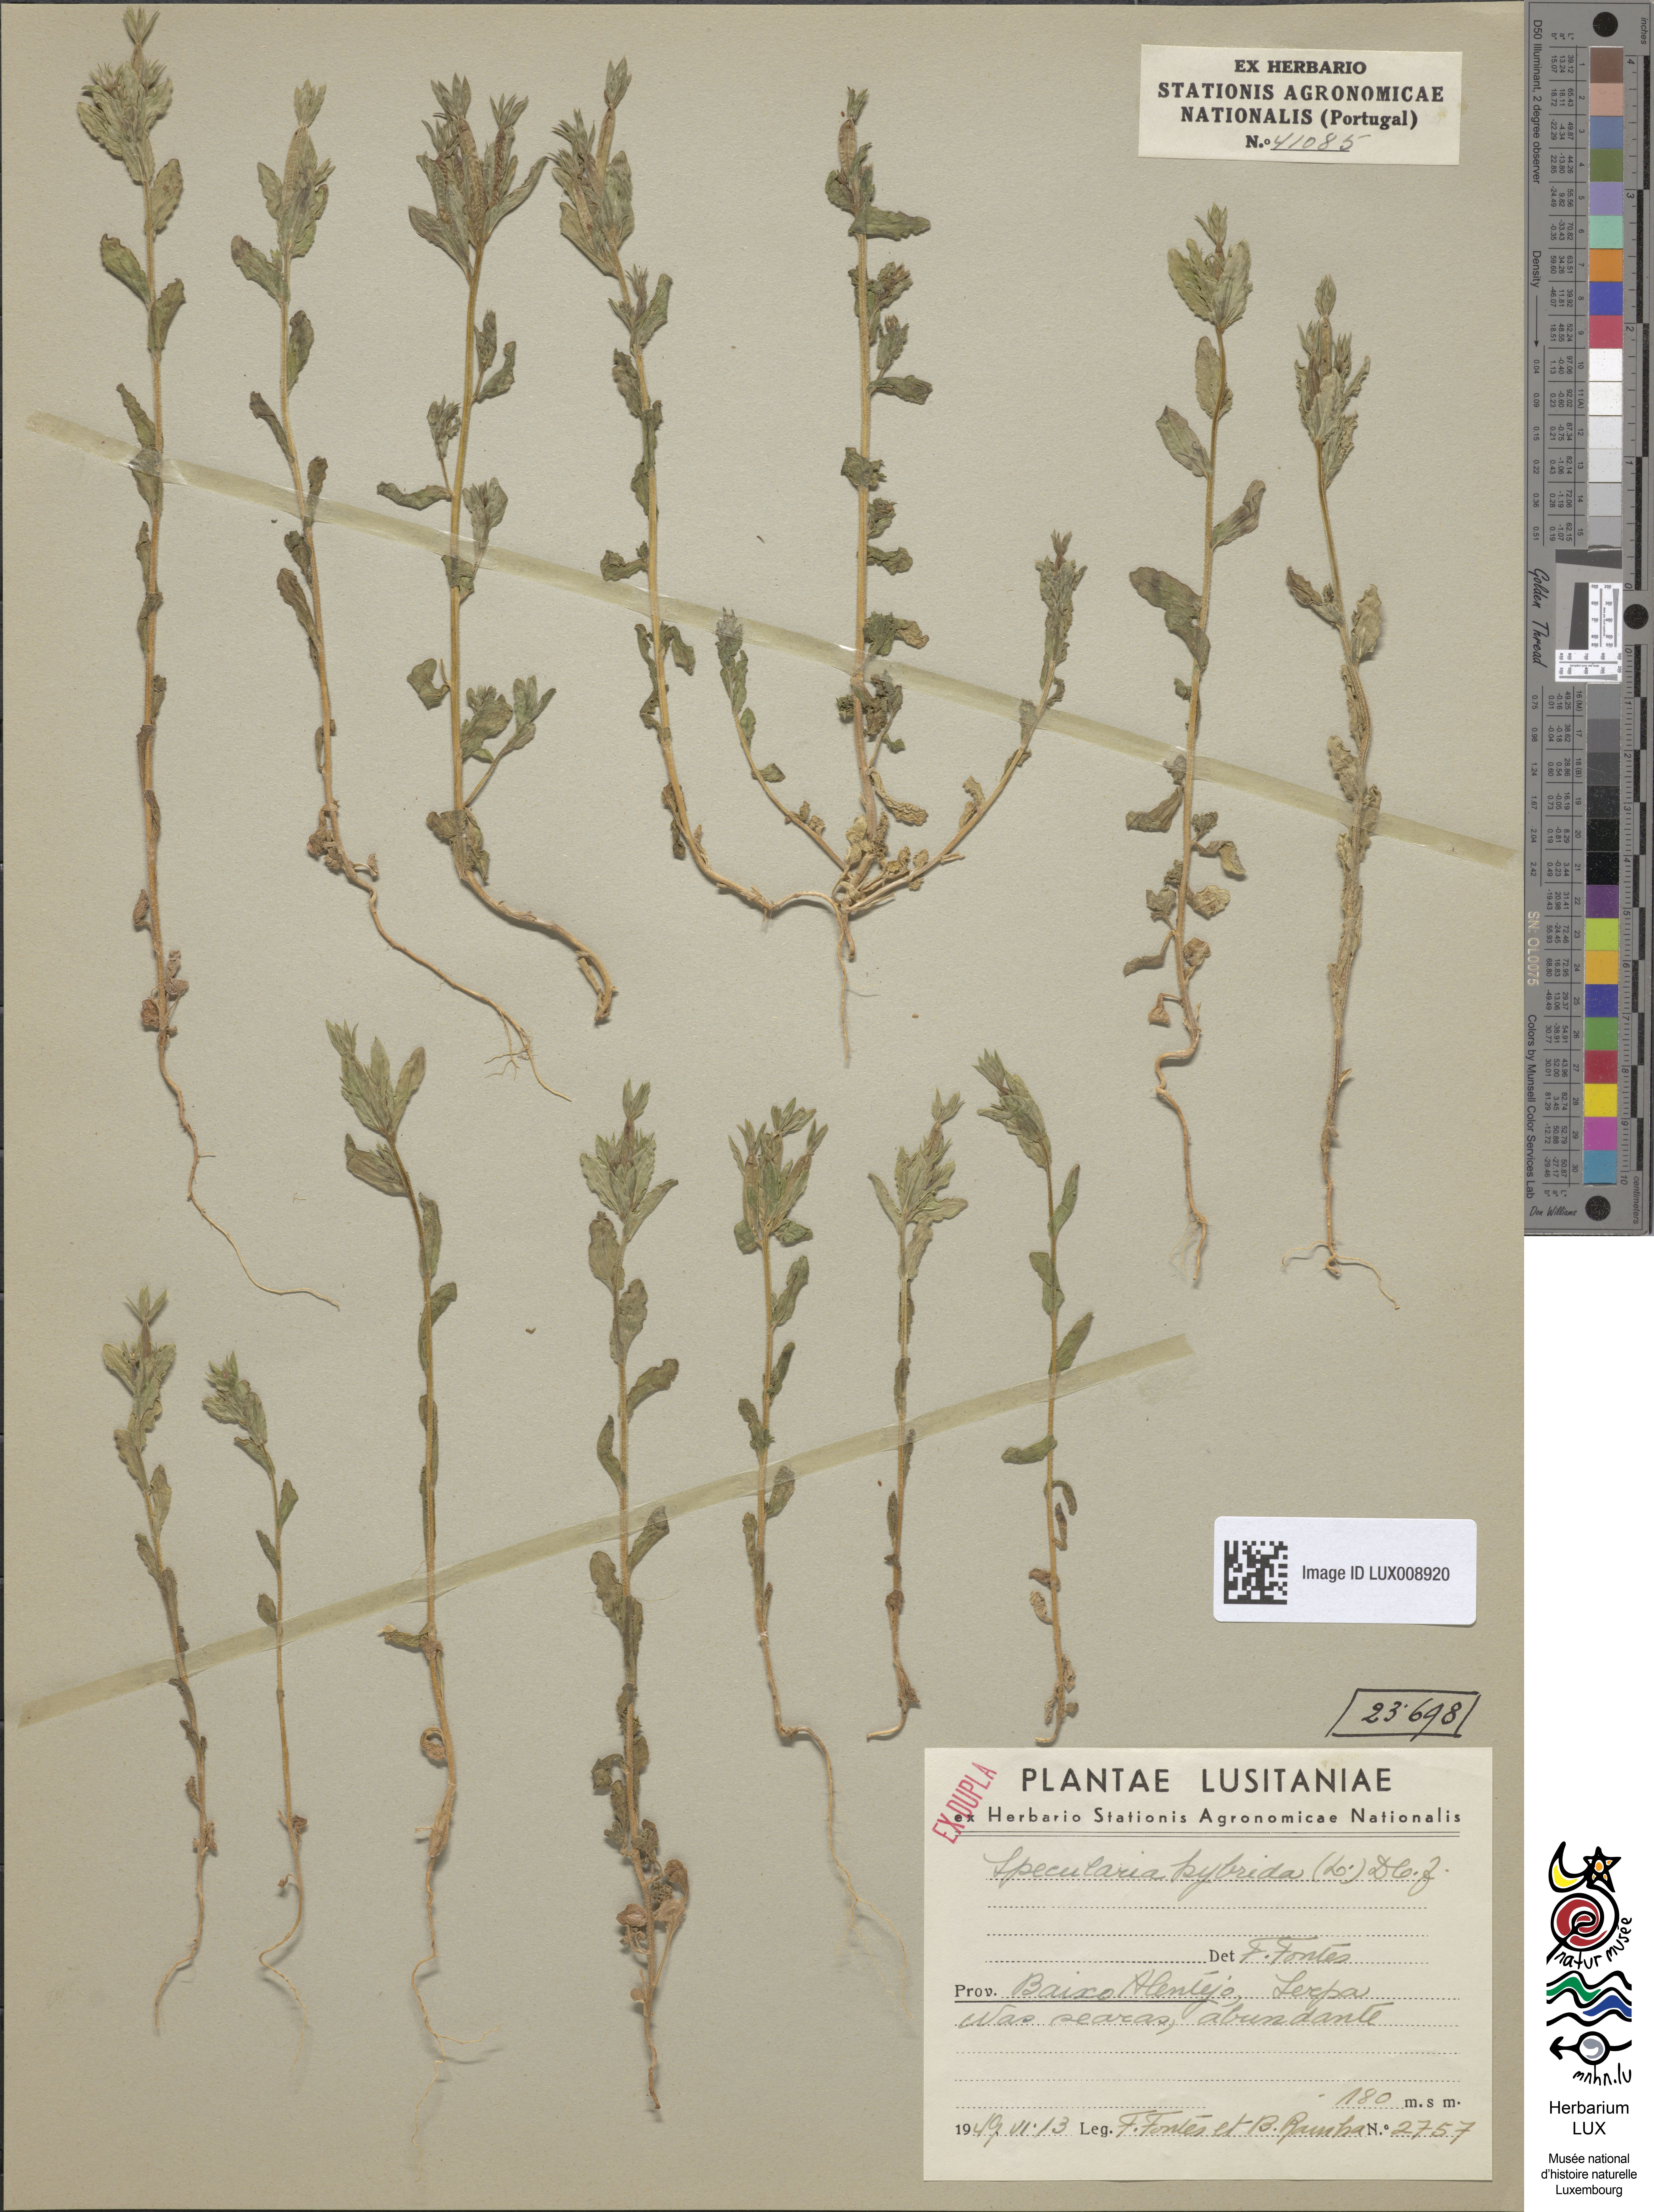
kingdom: Plantae
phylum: Tracheophyta
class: Magnoliopsida
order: Asterales
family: Campanulaceae
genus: Legousia
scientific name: Legousia hybrida
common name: Venus's-looking-glass
